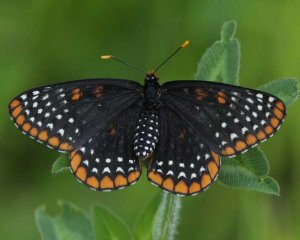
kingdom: Animalia
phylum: Arthropoda
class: Insecta
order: Lepidoptera
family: Nymphalidae
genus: Euphydryas
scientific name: Euphydryas phaeton
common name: Baltimore Checkerspot
